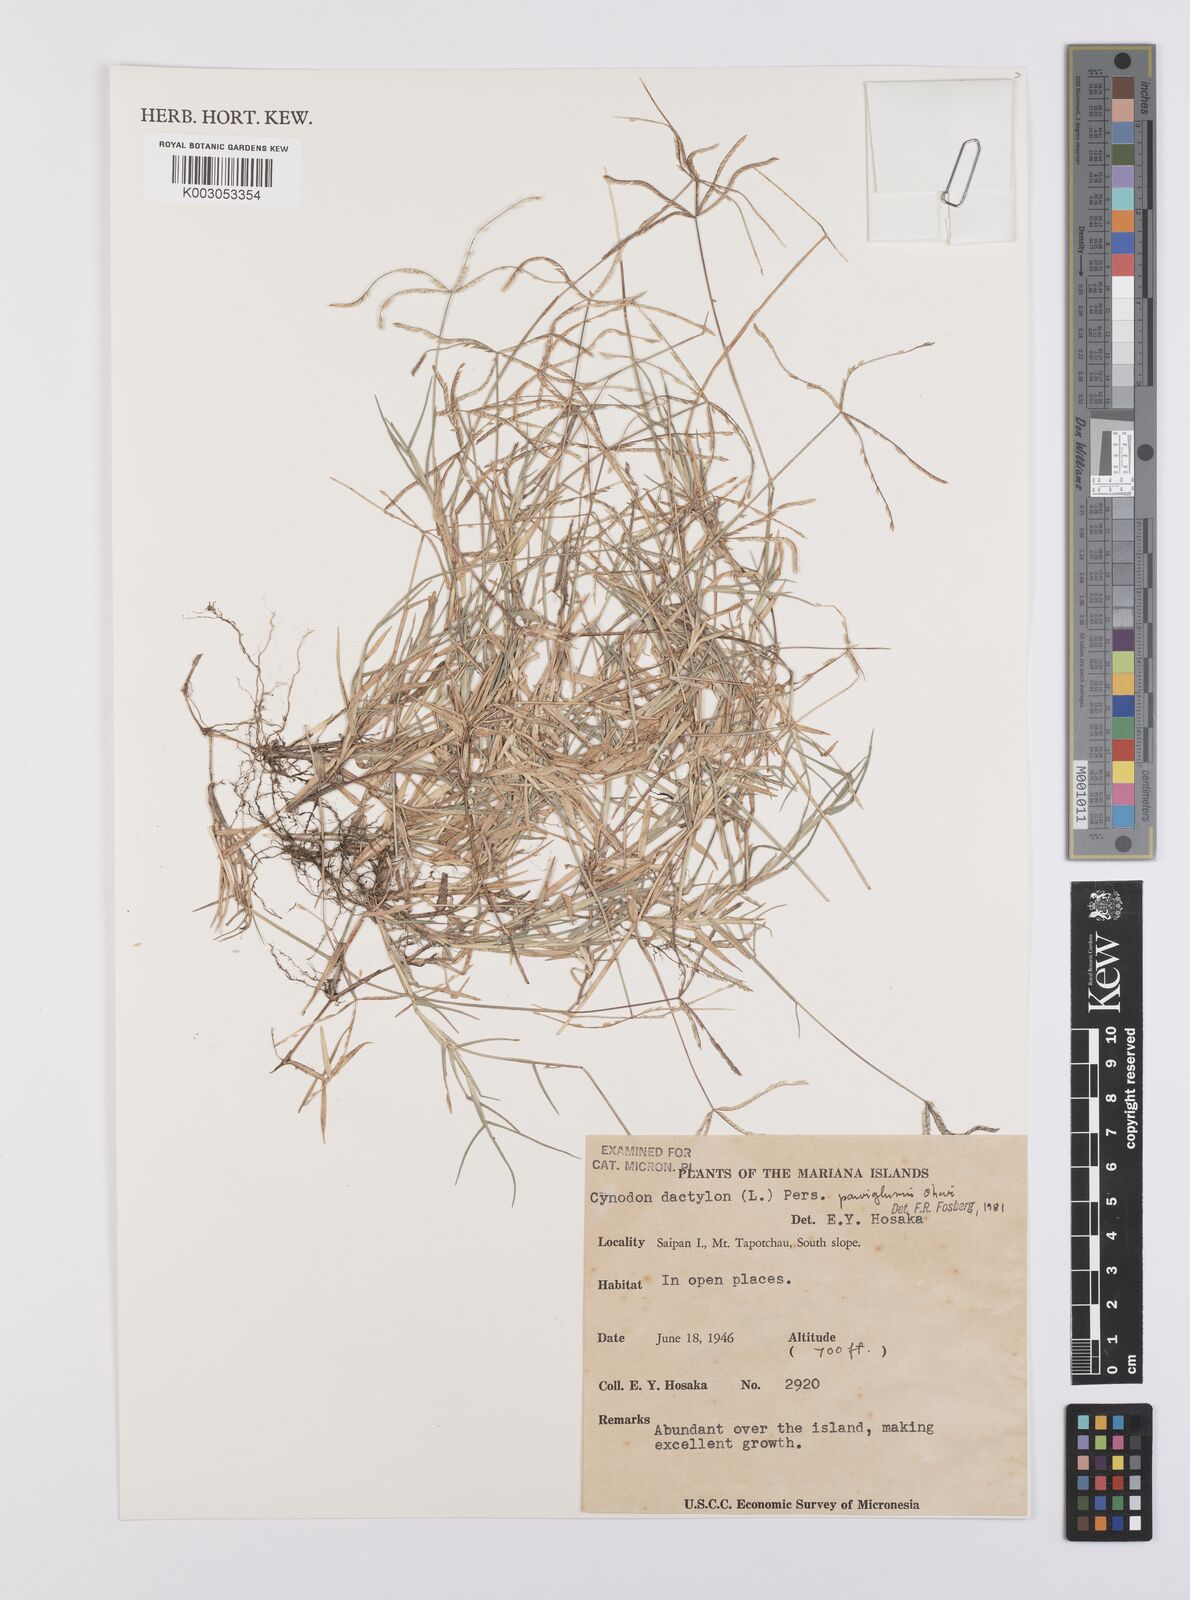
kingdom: Plantae
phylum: Tracheophyta
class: Liliopsida
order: Poales
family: Poaceae
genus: Cynodon
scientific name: Cynodon dactylon
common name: Bermuda grass
